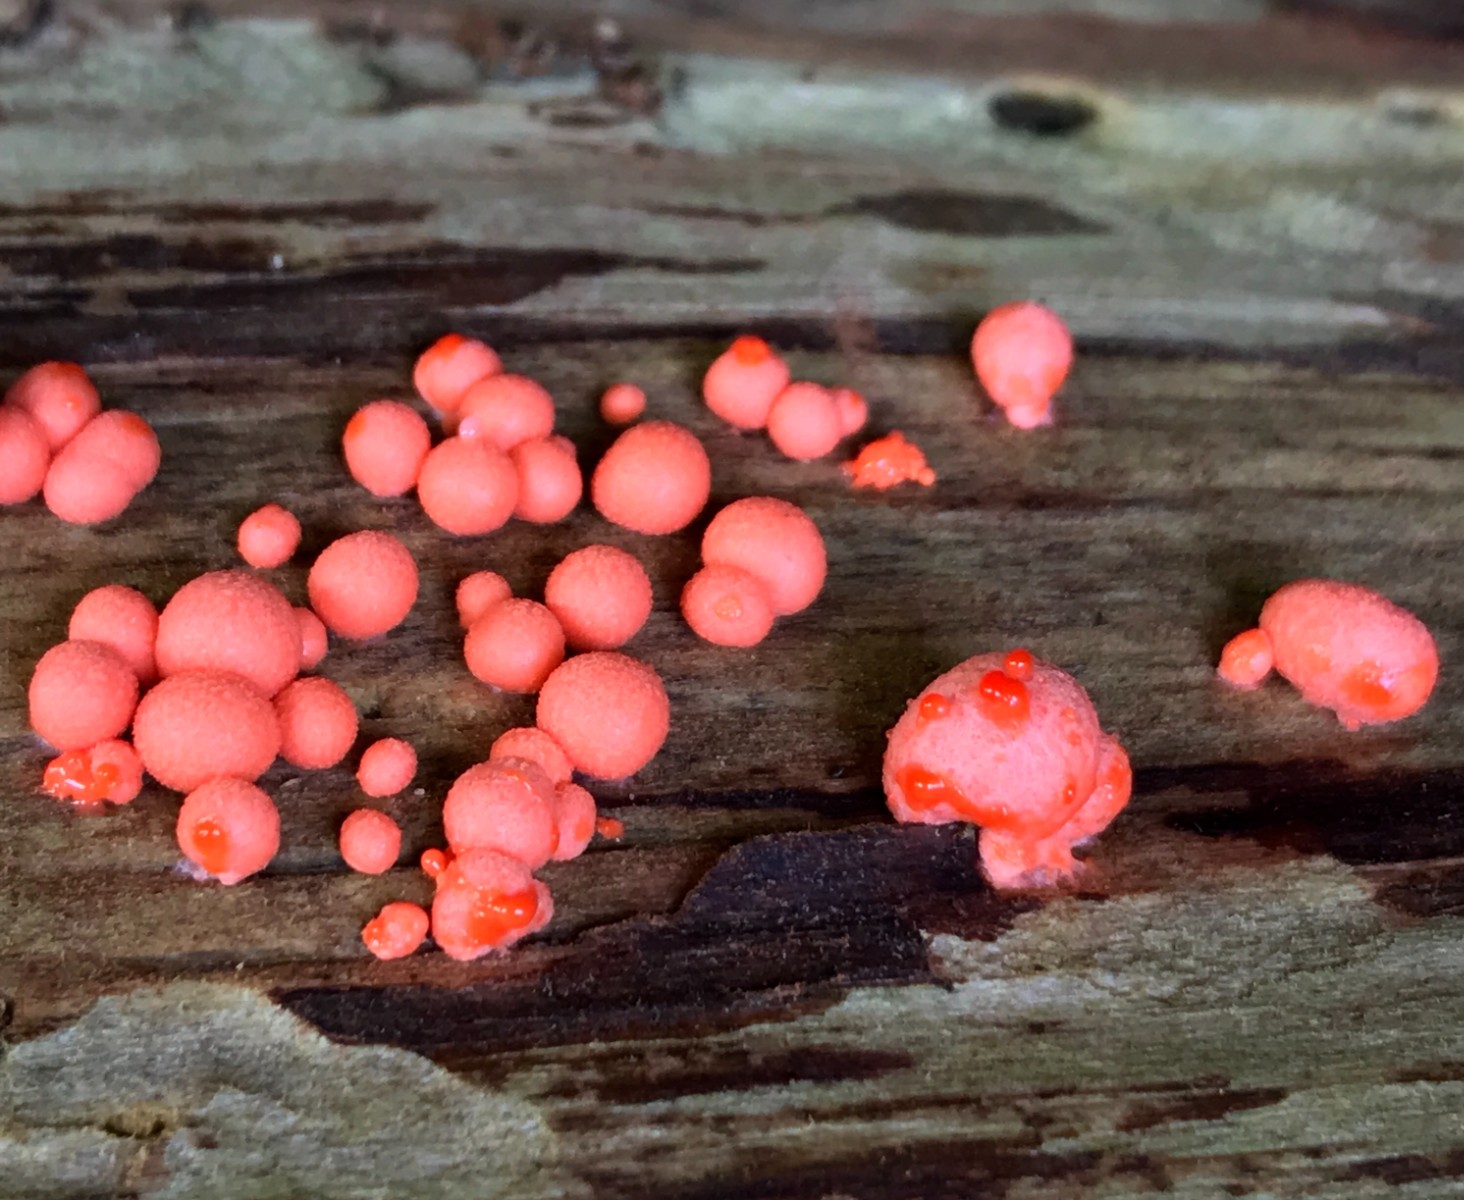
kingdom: Protozoa
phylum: Mycetozoa
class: Myxomycetes
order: Cribrariales
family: Tubiferaceae
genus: Lycogala
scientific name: Lycogala epidendrum
